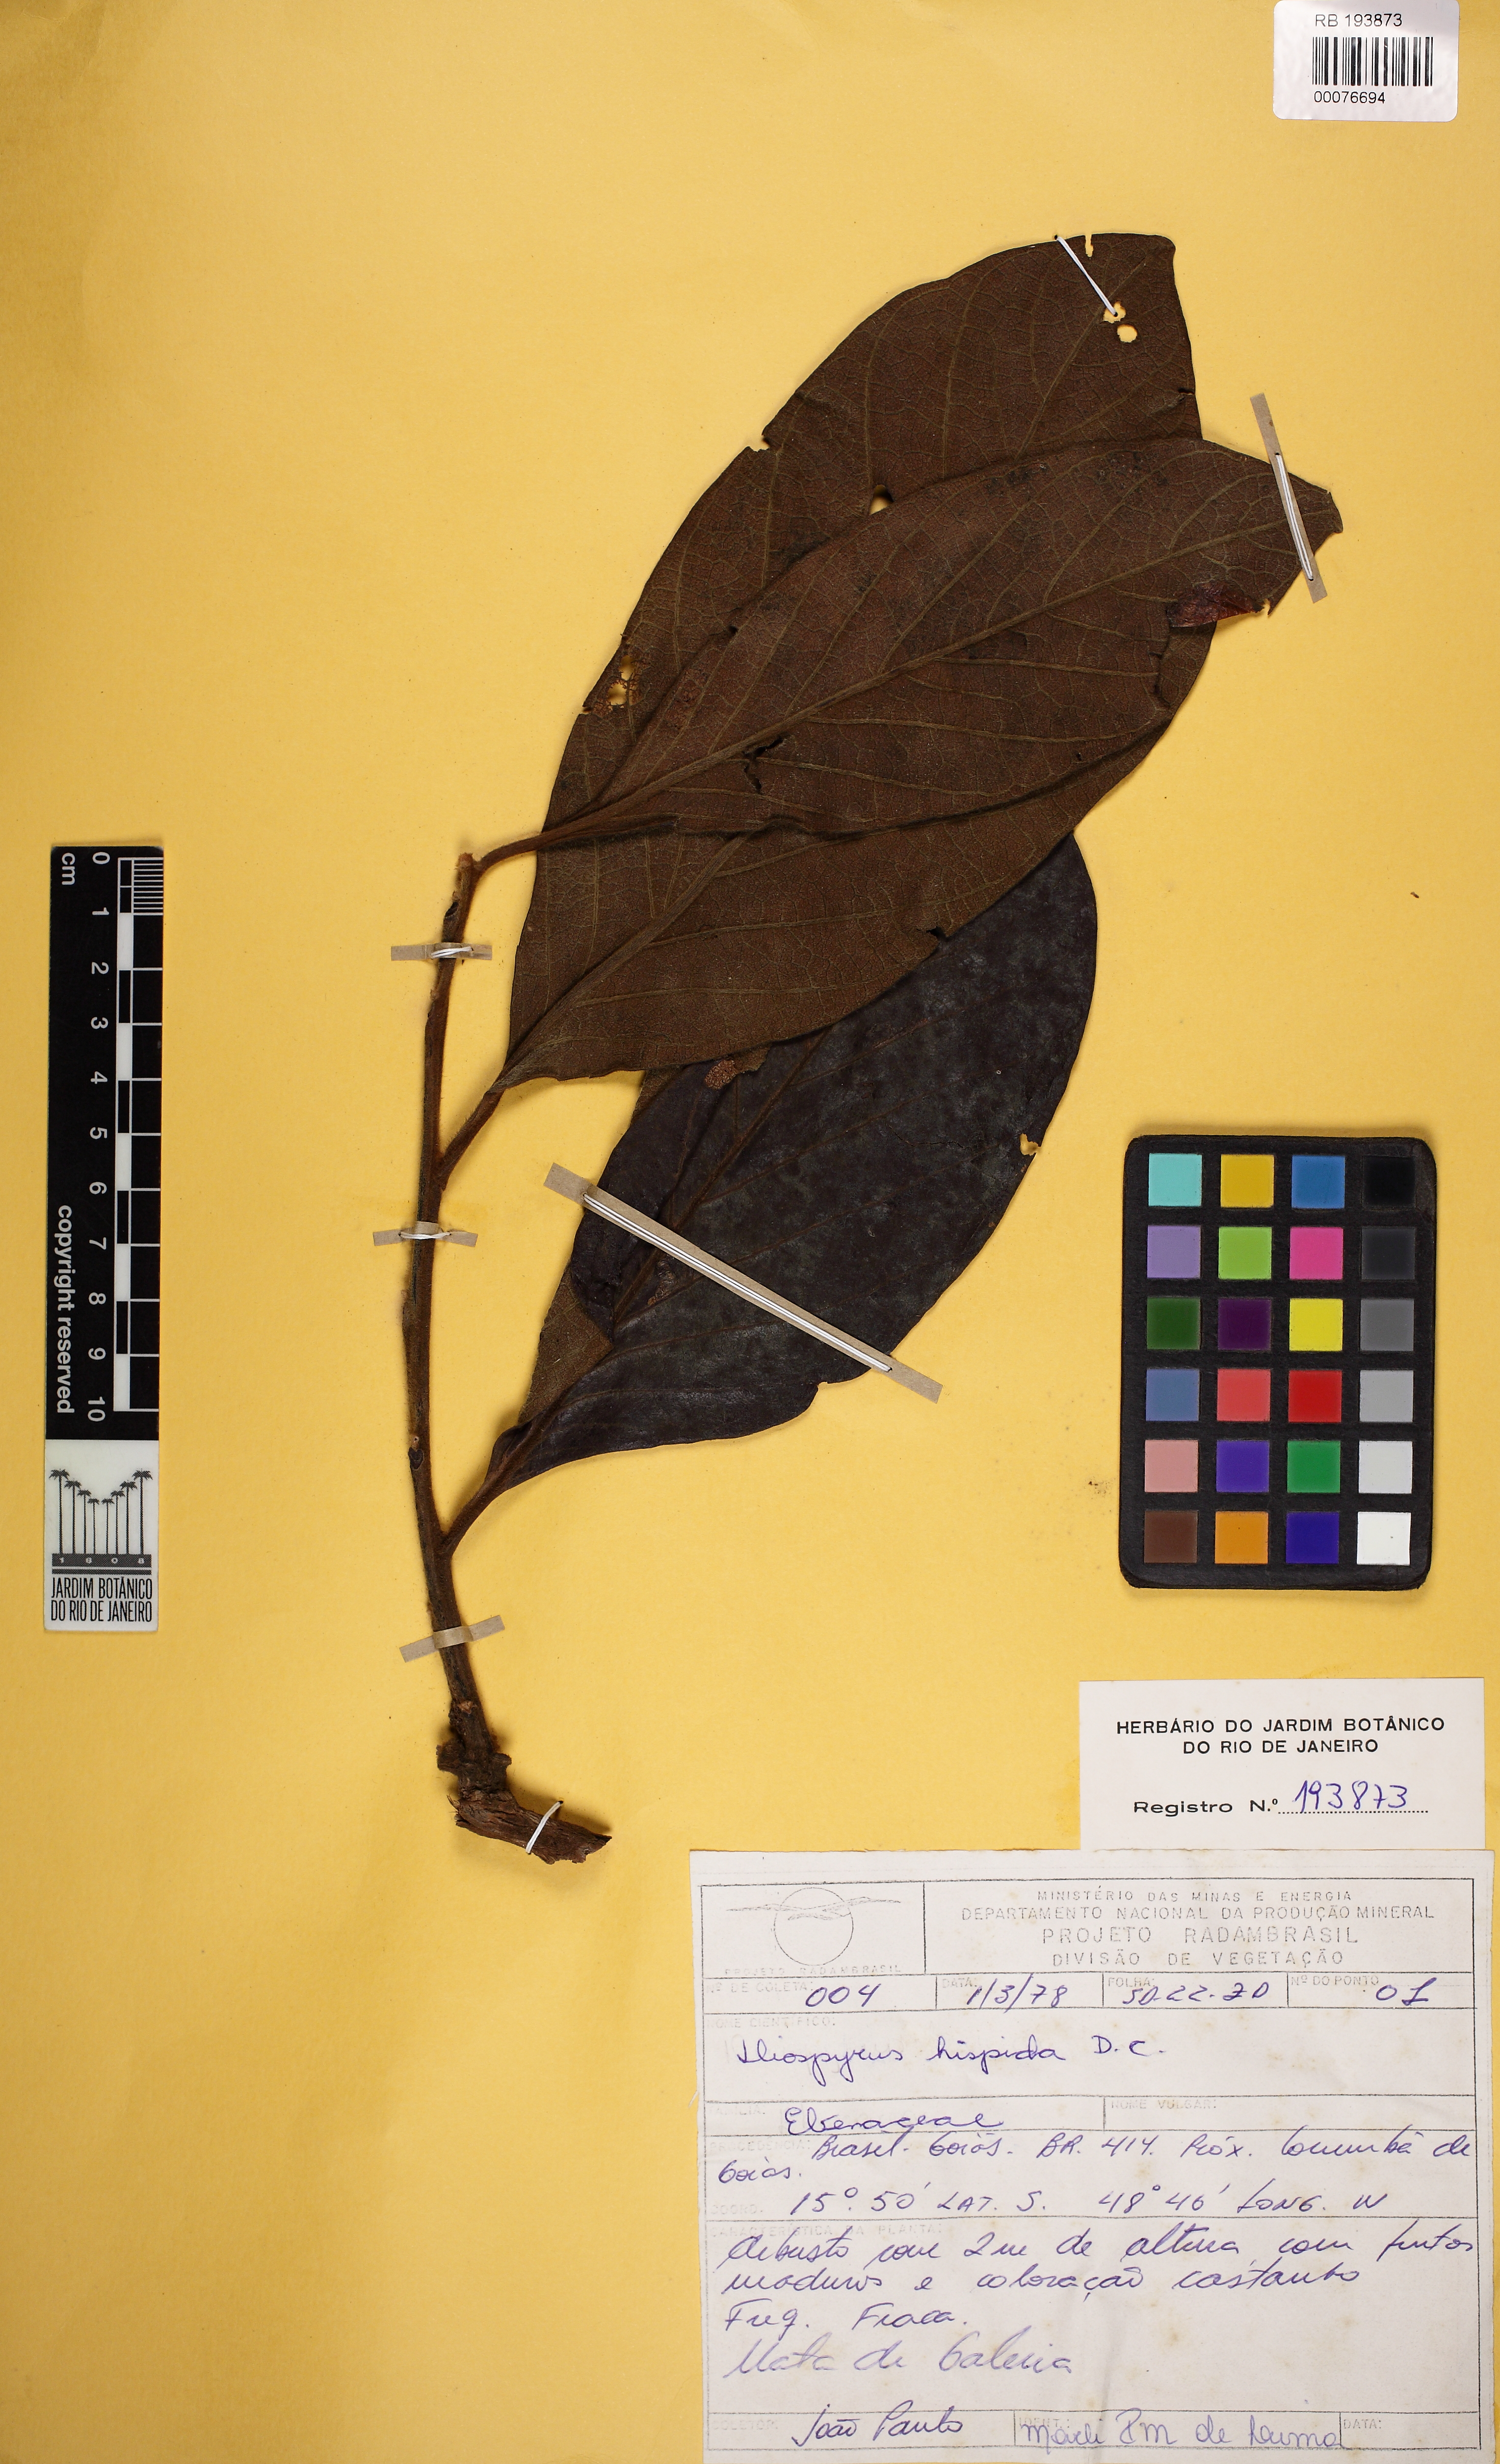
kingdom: Plantae
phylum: Tracheophyta
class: Magnoliopsida
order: Ericales
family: Ebenaceae
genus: Diospyros
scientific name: Diospyros lasiocalyx
